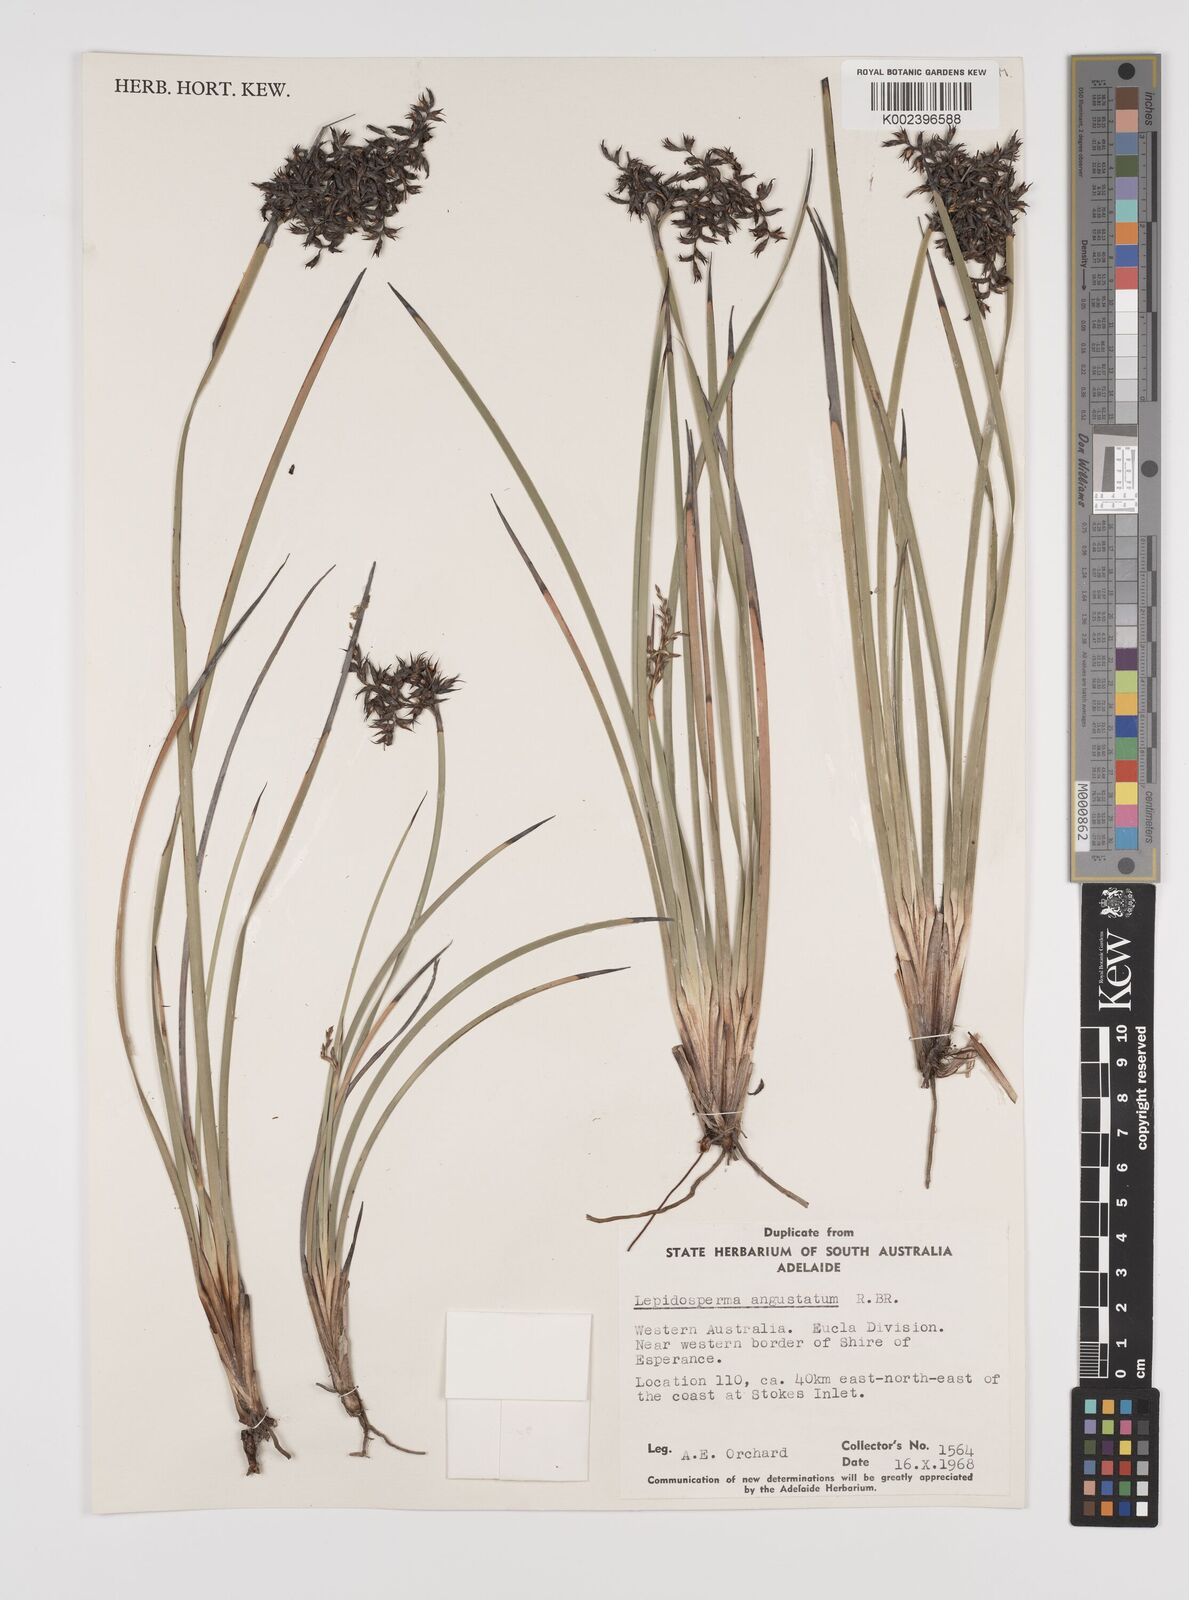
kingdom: Plantae
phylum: Tracheophyta
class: Liliopsida
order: Poales
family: Cyperaceae
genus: Lepidosperma
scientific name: Lepidosperma angustatum
